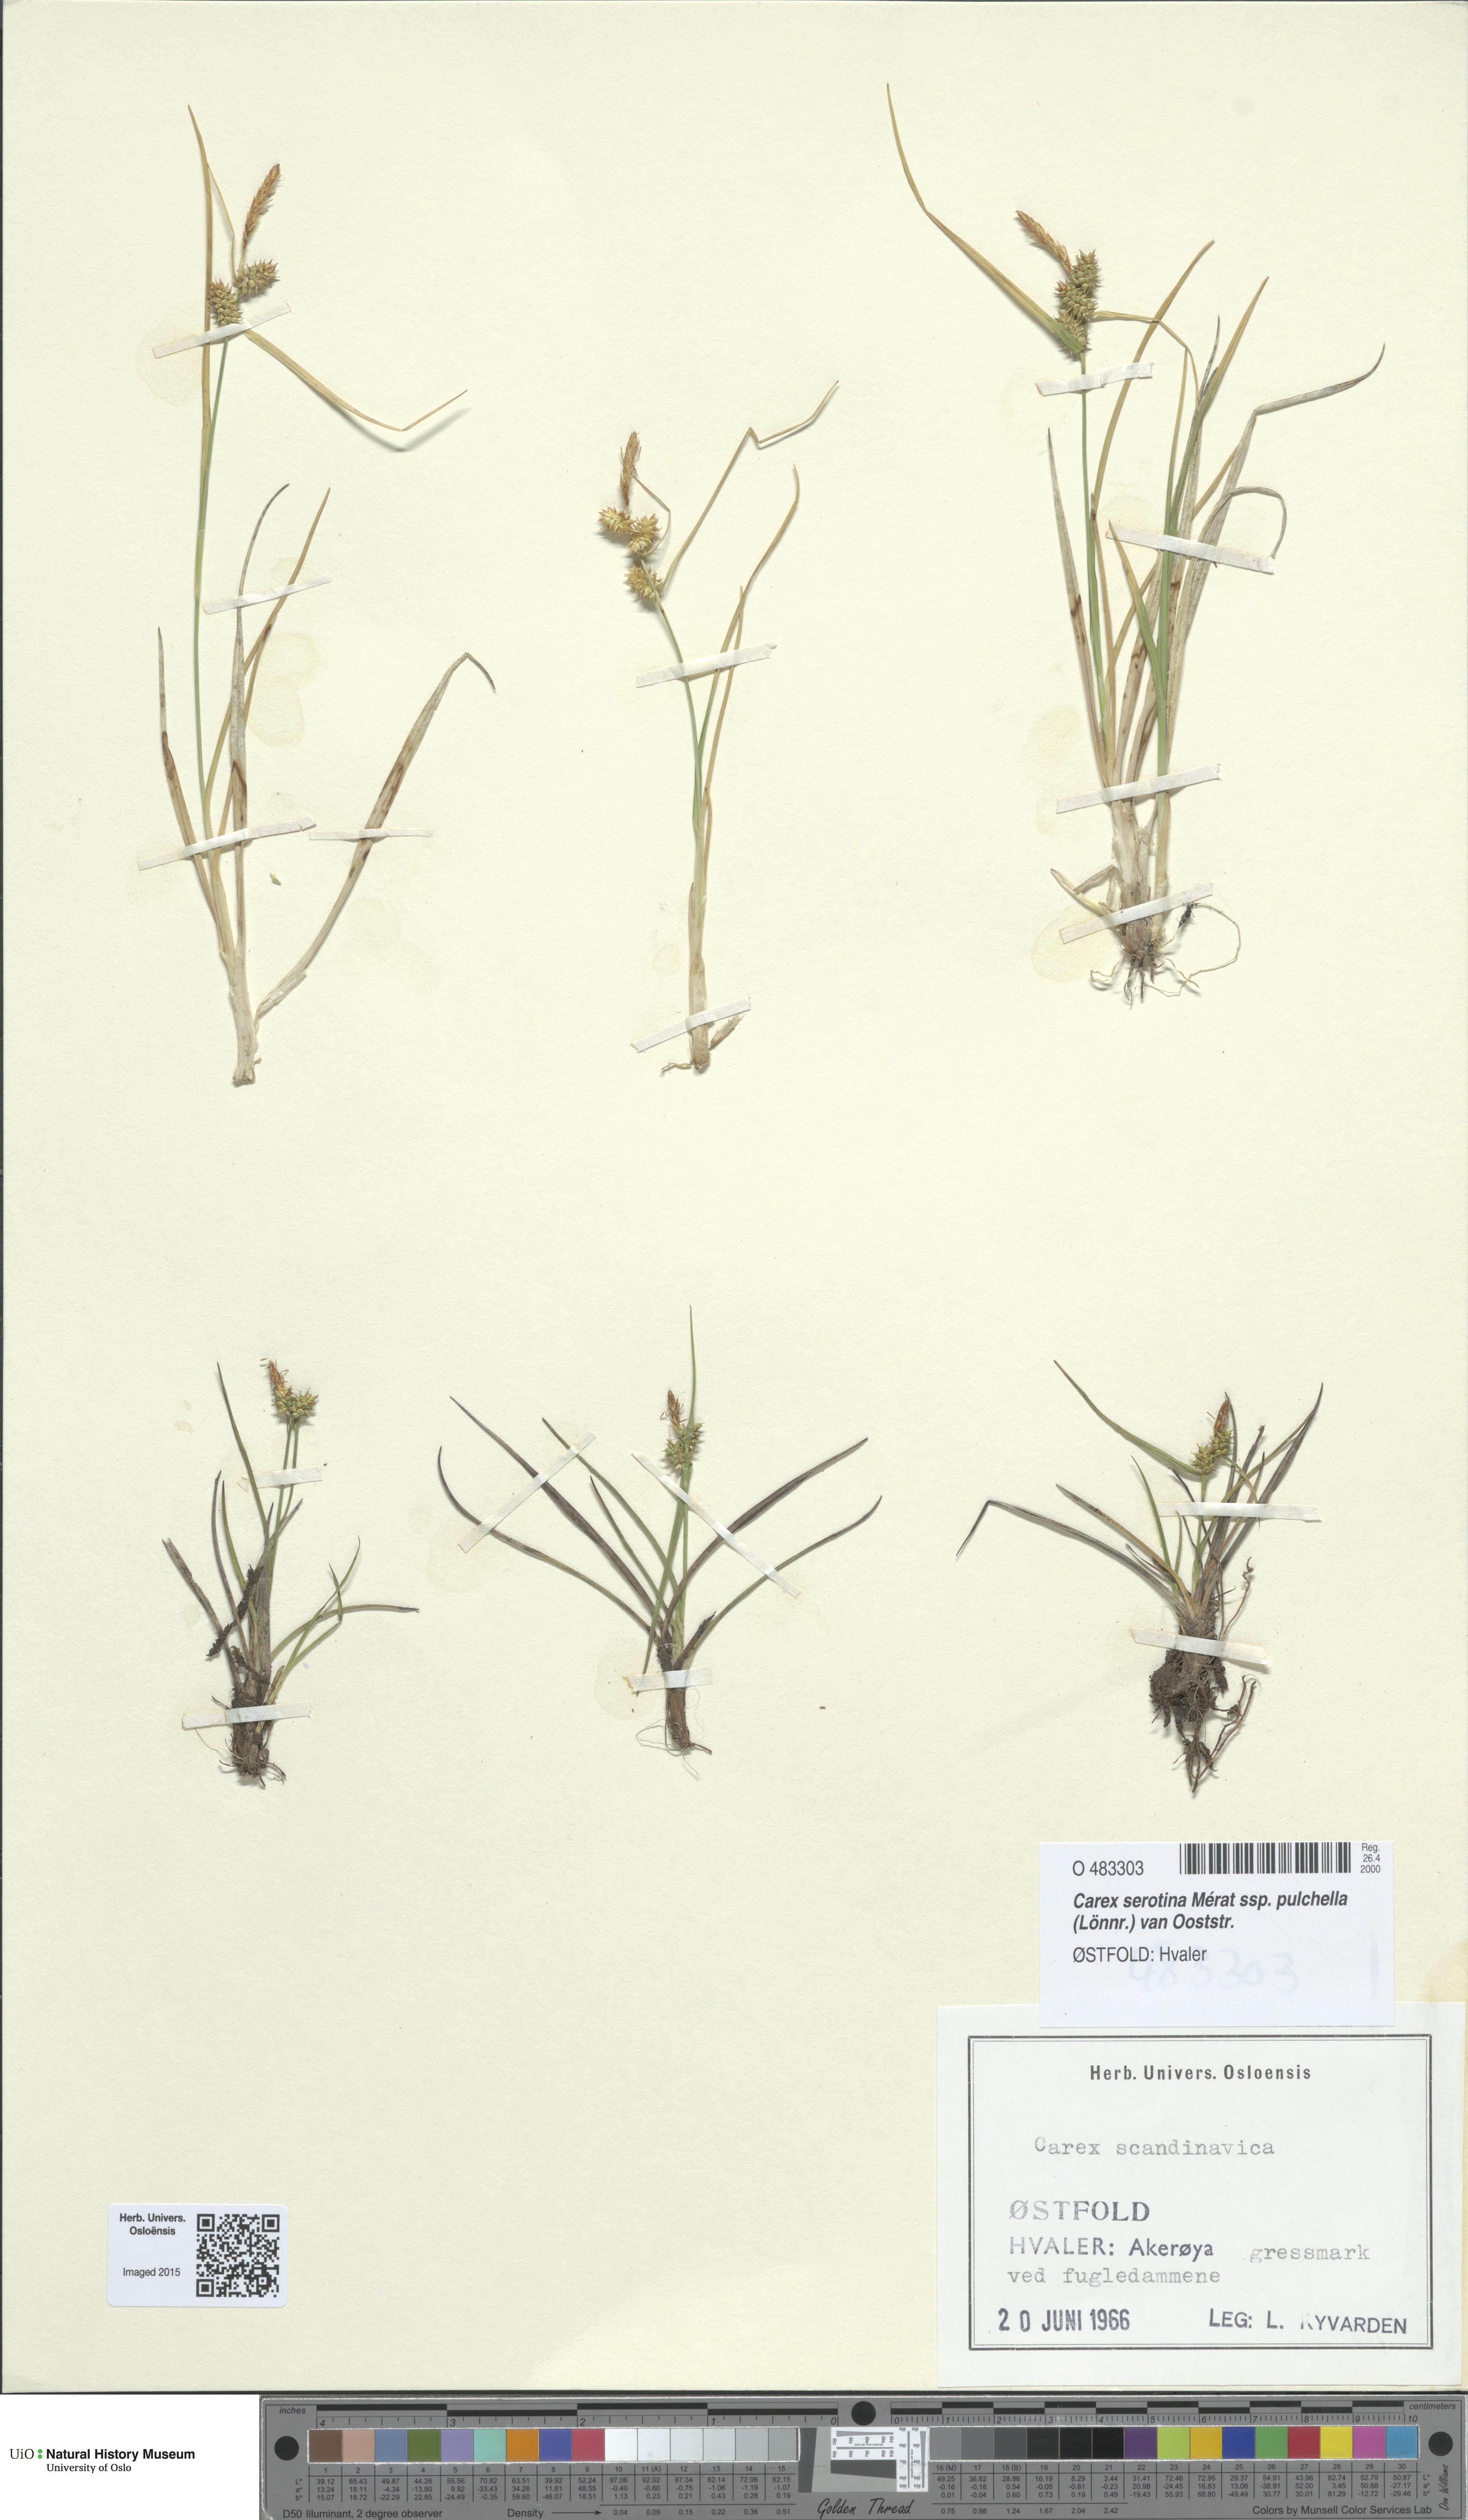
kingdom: Plantae
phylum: Tracheophyta
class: Liliopsida
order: Poales
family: Cyperaceae
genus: Carex
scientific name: Carex oederi
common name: Common & small-fruited yellow-sedge
